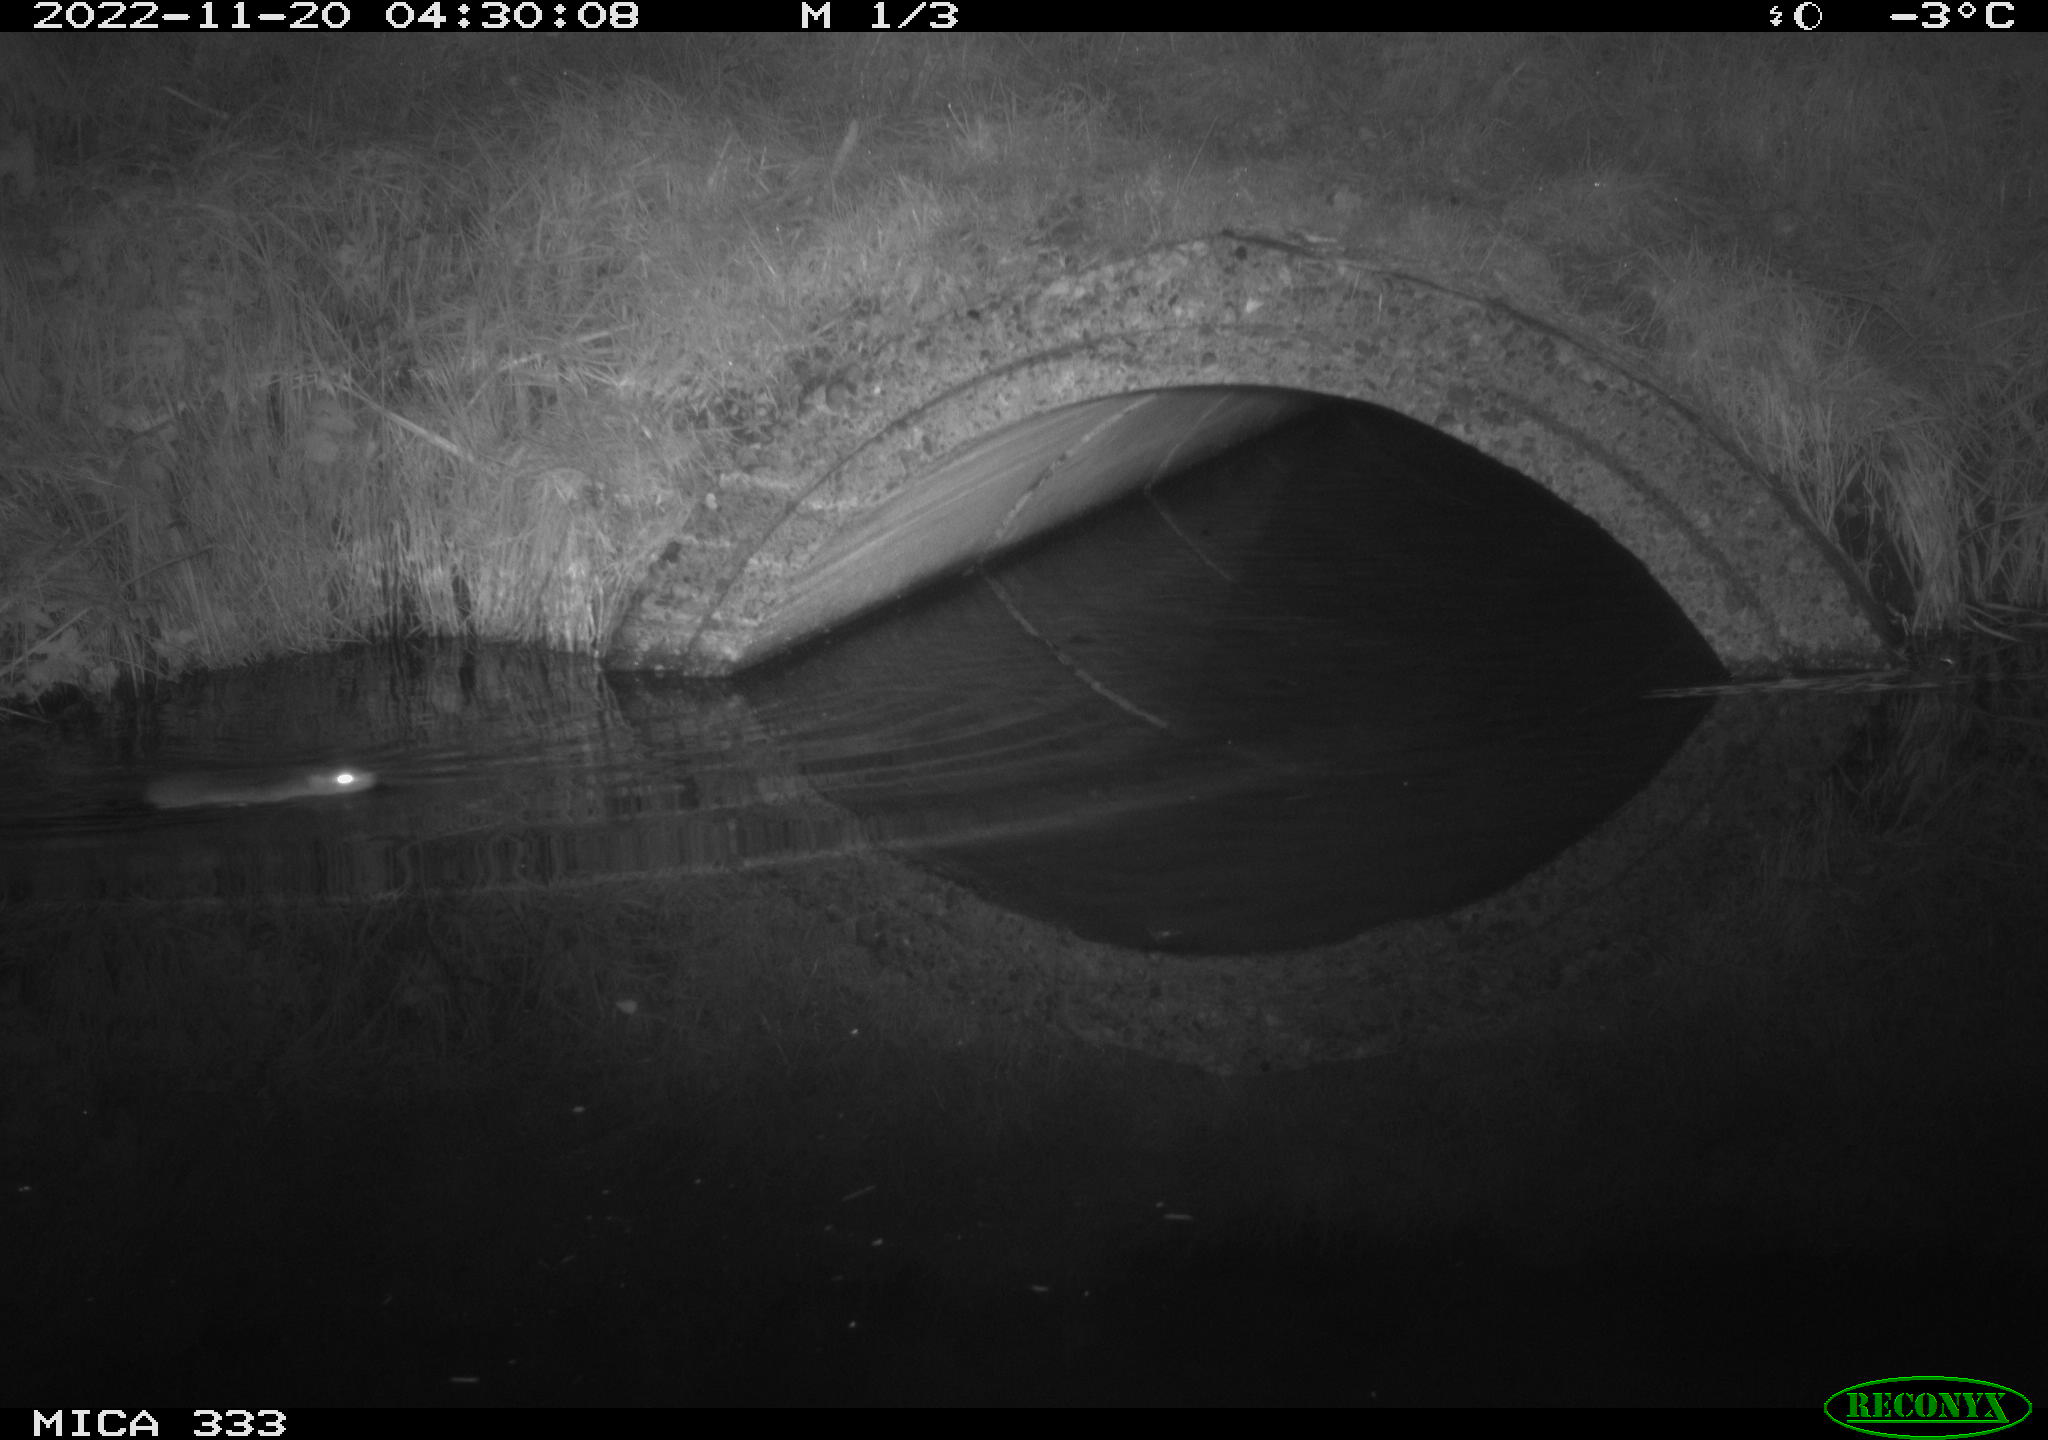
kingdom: Animalia
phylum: Chordata
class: Mammalia
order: Rodentia
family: Muridae
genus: Rattus
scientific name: Rattus norvegicus
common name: Brown rat
